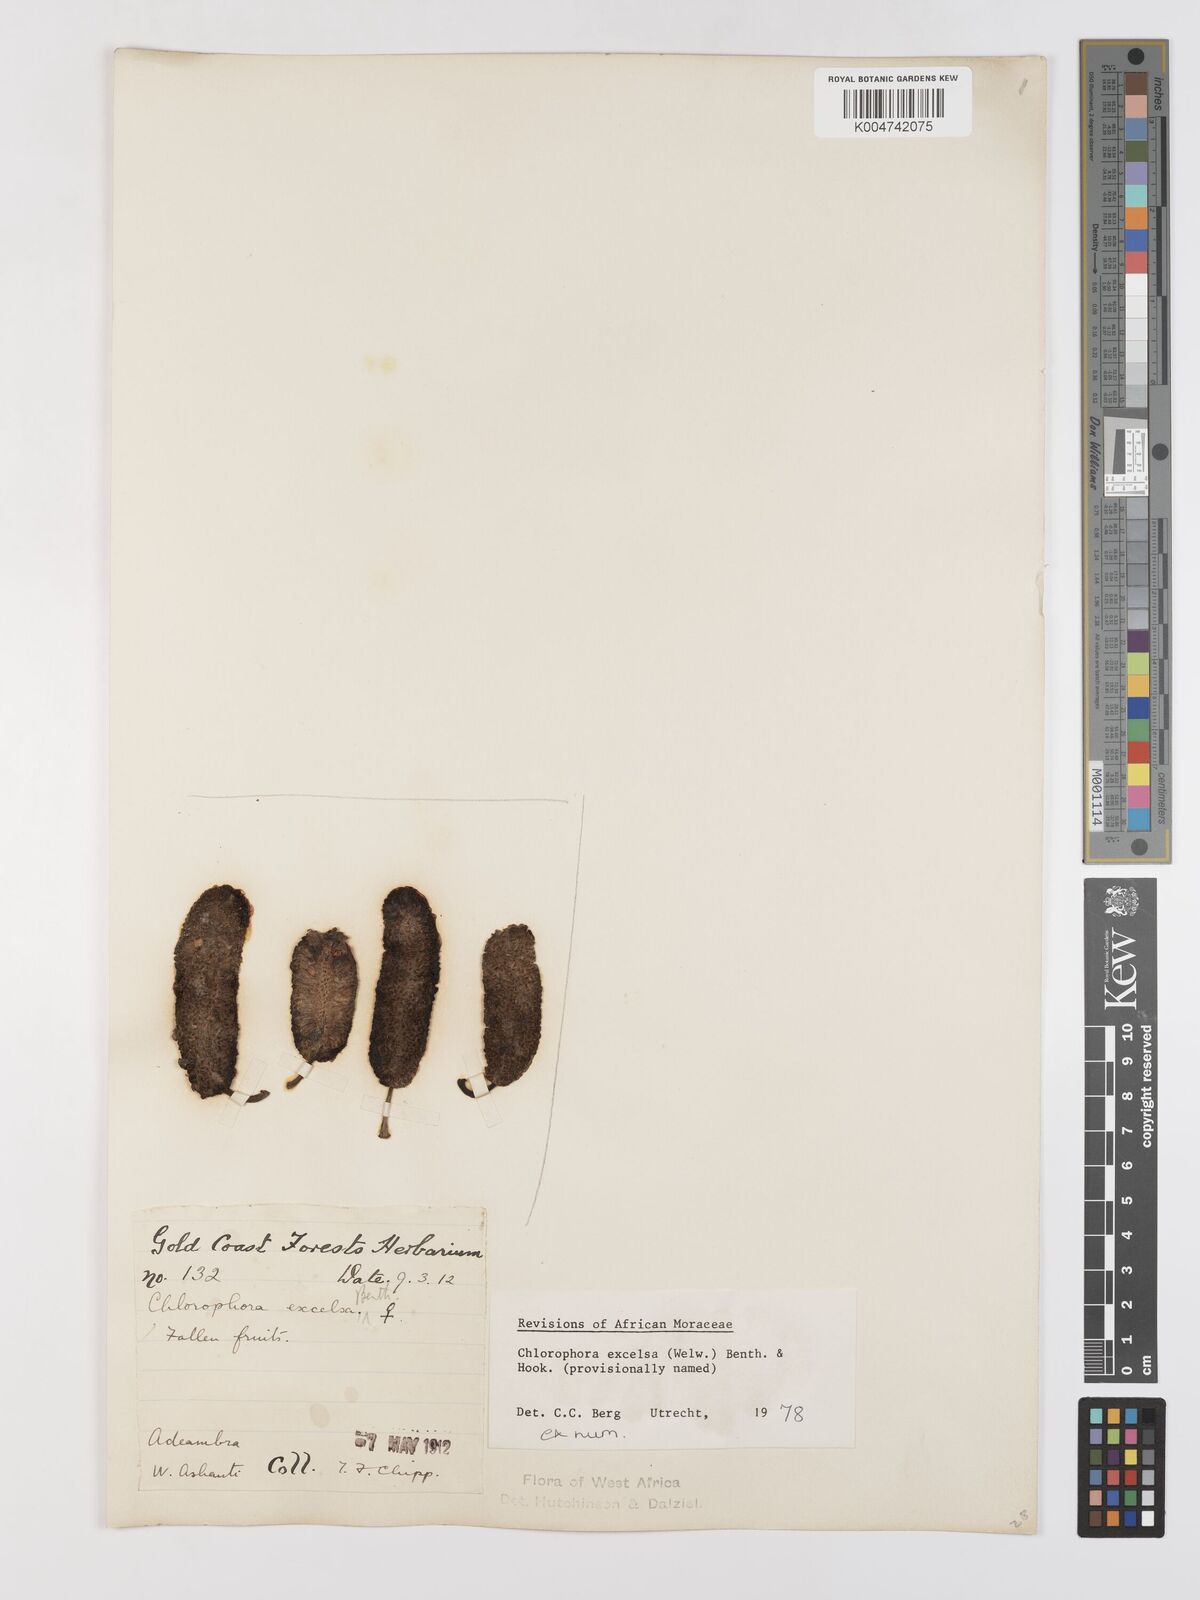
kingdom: Plantae
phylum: Tracheophyta
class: Magnoliopsida
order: Rosales
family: Moraceae
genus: Milicia
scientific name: Milicia excelsa
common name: African teak
